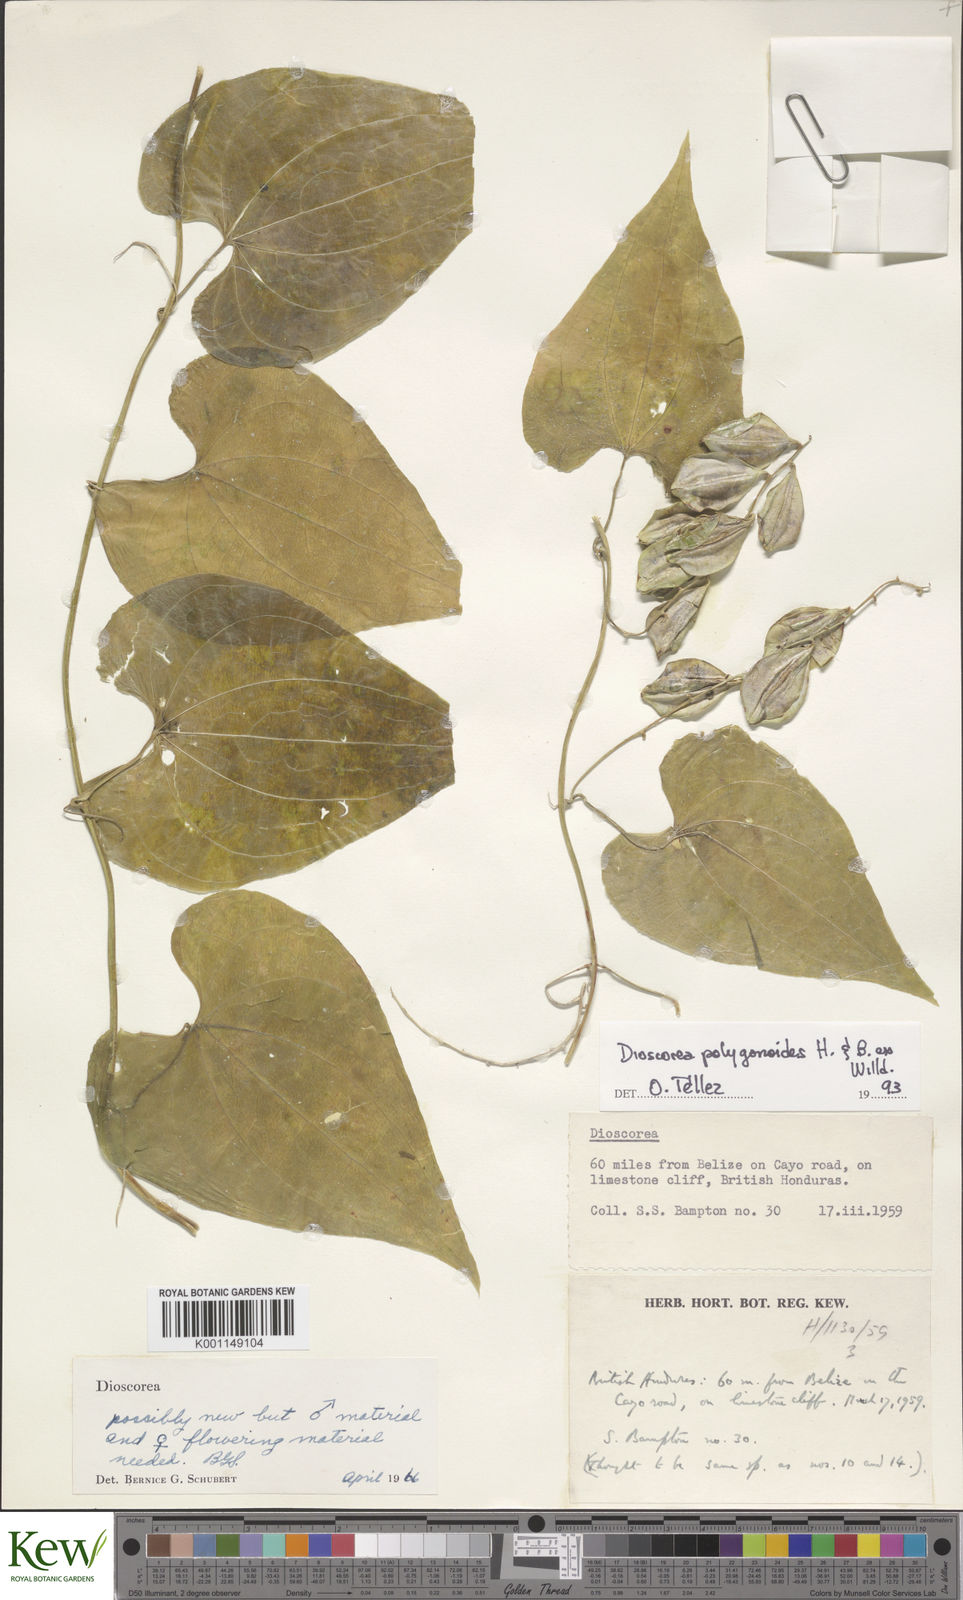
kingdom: Plantae
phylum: Tracheophyta
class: Liliopsida
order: Dioscoreales
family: Dioscoreaceae
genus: Dioscorea
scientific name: Dioscorea
